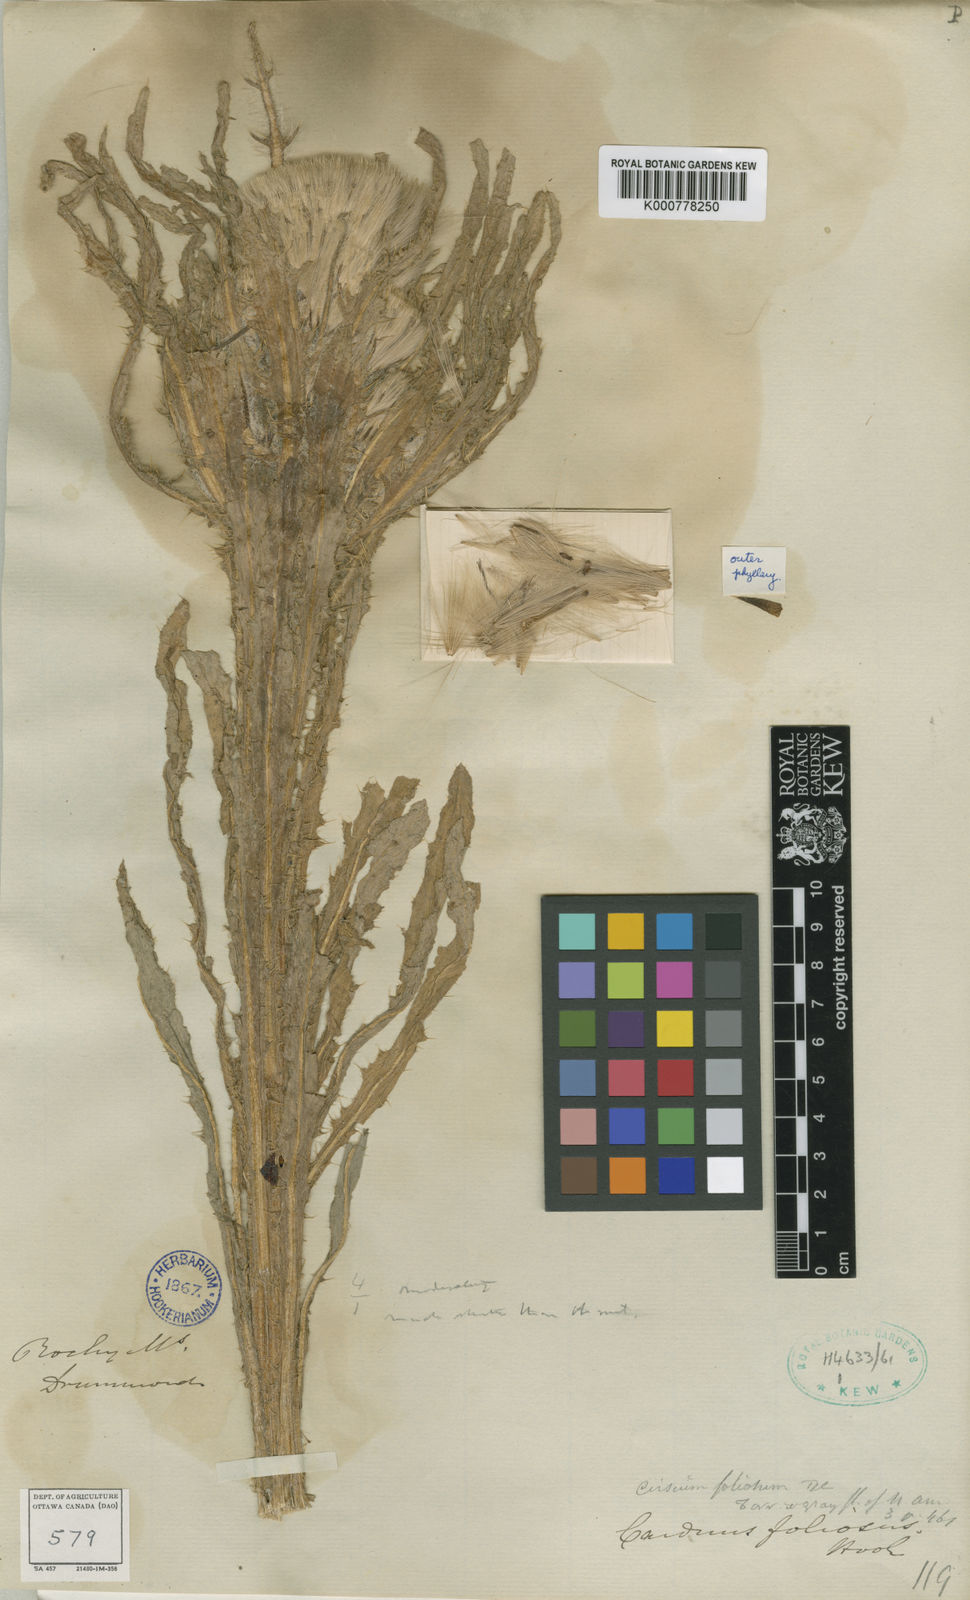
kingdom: Plantae
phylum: Tracheophyta
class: Magnoliopsida
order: Asterales
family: Asteraceae
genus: Cirsium
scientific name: Cirsium foliosum
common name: Elk thistle
